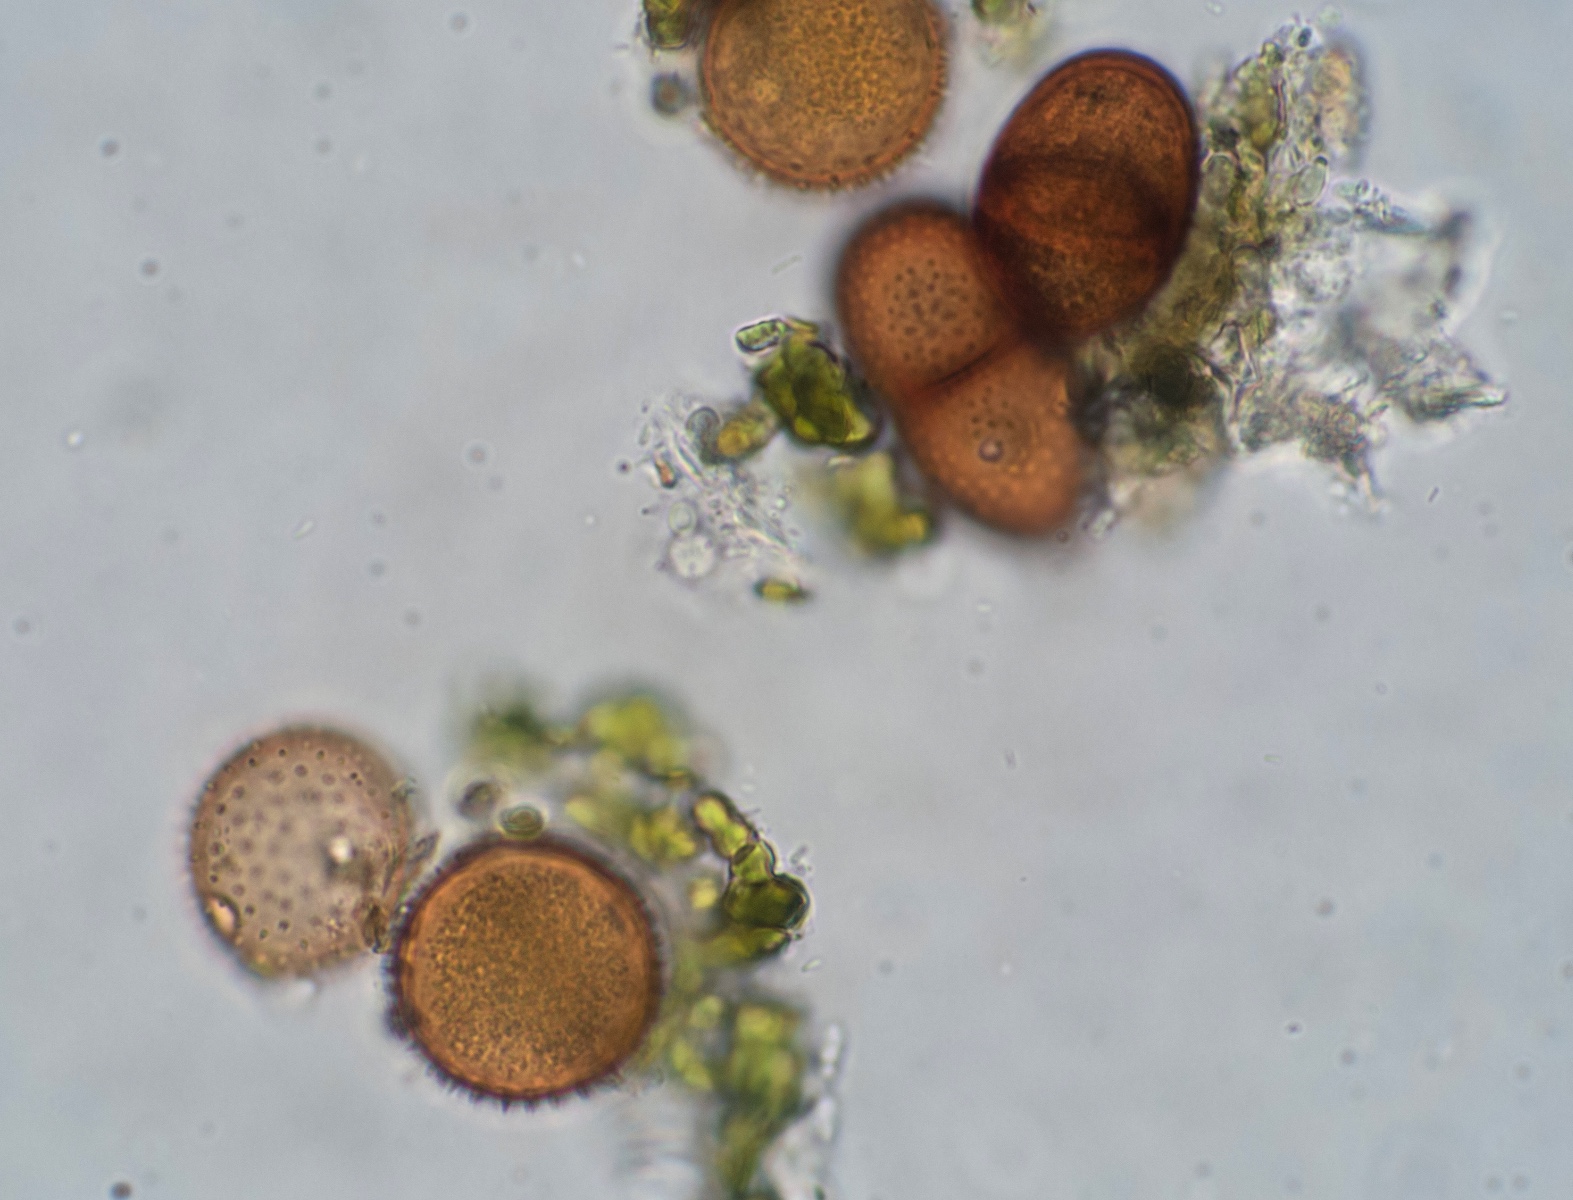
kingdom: Fungi
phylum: Basidiomycota
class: Pucciniomycetes
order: Pucciniales
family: Pucciniaceae
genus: Puccinia
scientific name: Puccinia calcitrapae
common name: Rust fungus
